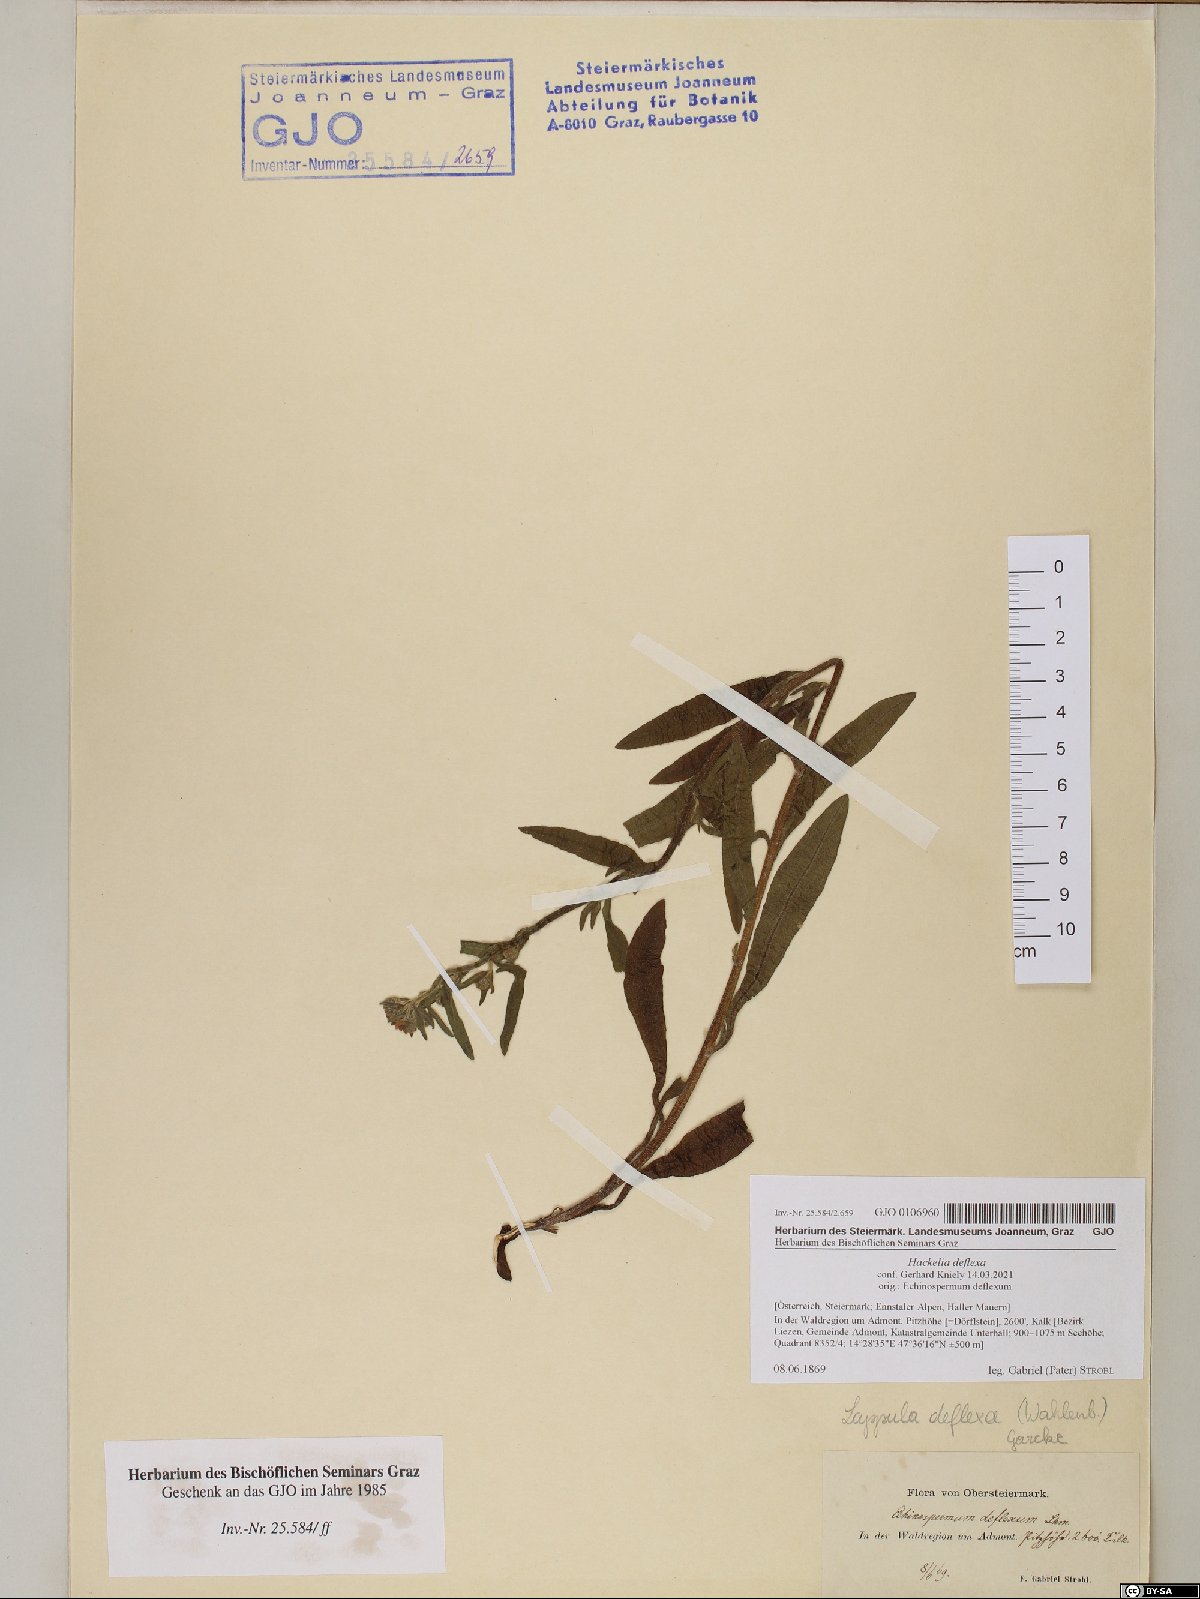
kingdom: Plantae
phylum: Tracheophyta
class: Magnoliopsida
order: Boraginales
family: Boraginaceae
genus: Hackelia
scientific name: Hackelia deflexa
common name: Nodding stickseed
